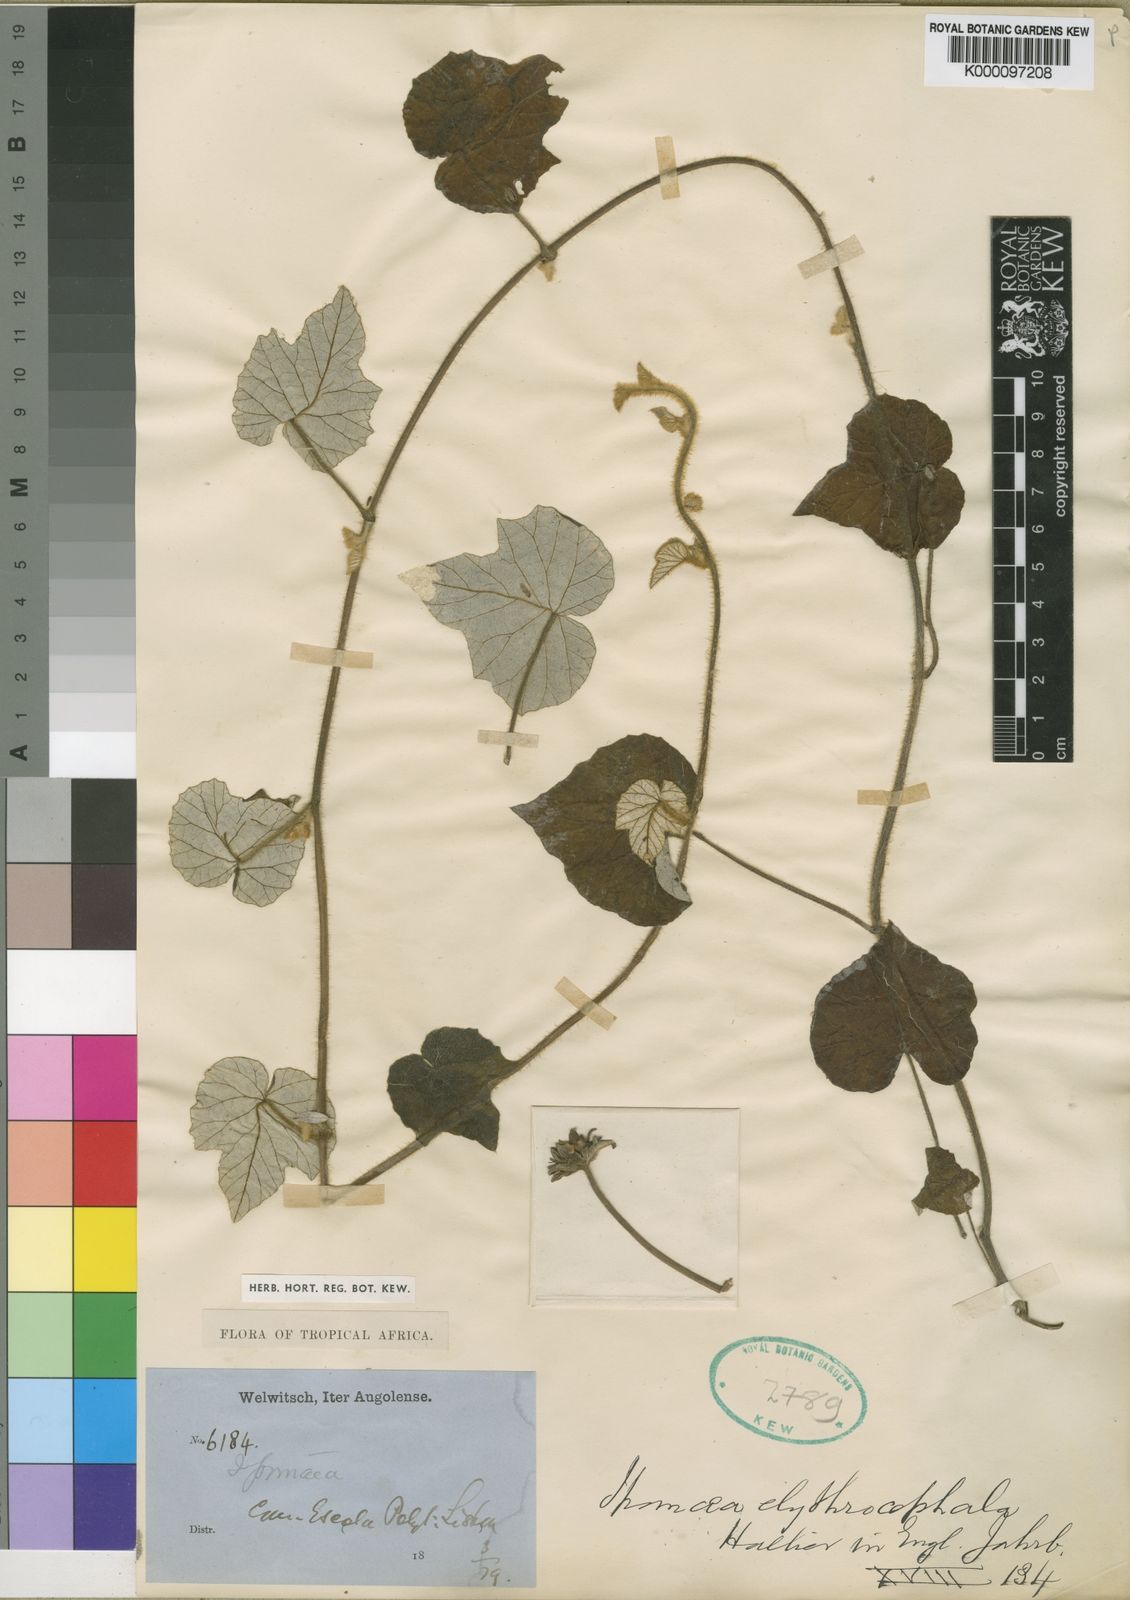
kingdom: Plantae
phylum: Tracheophyta
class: Magnoliopsida
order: Solanales
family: Convolvulaceae
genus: Ipomoea
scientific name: Ipomoea elythrocephala
